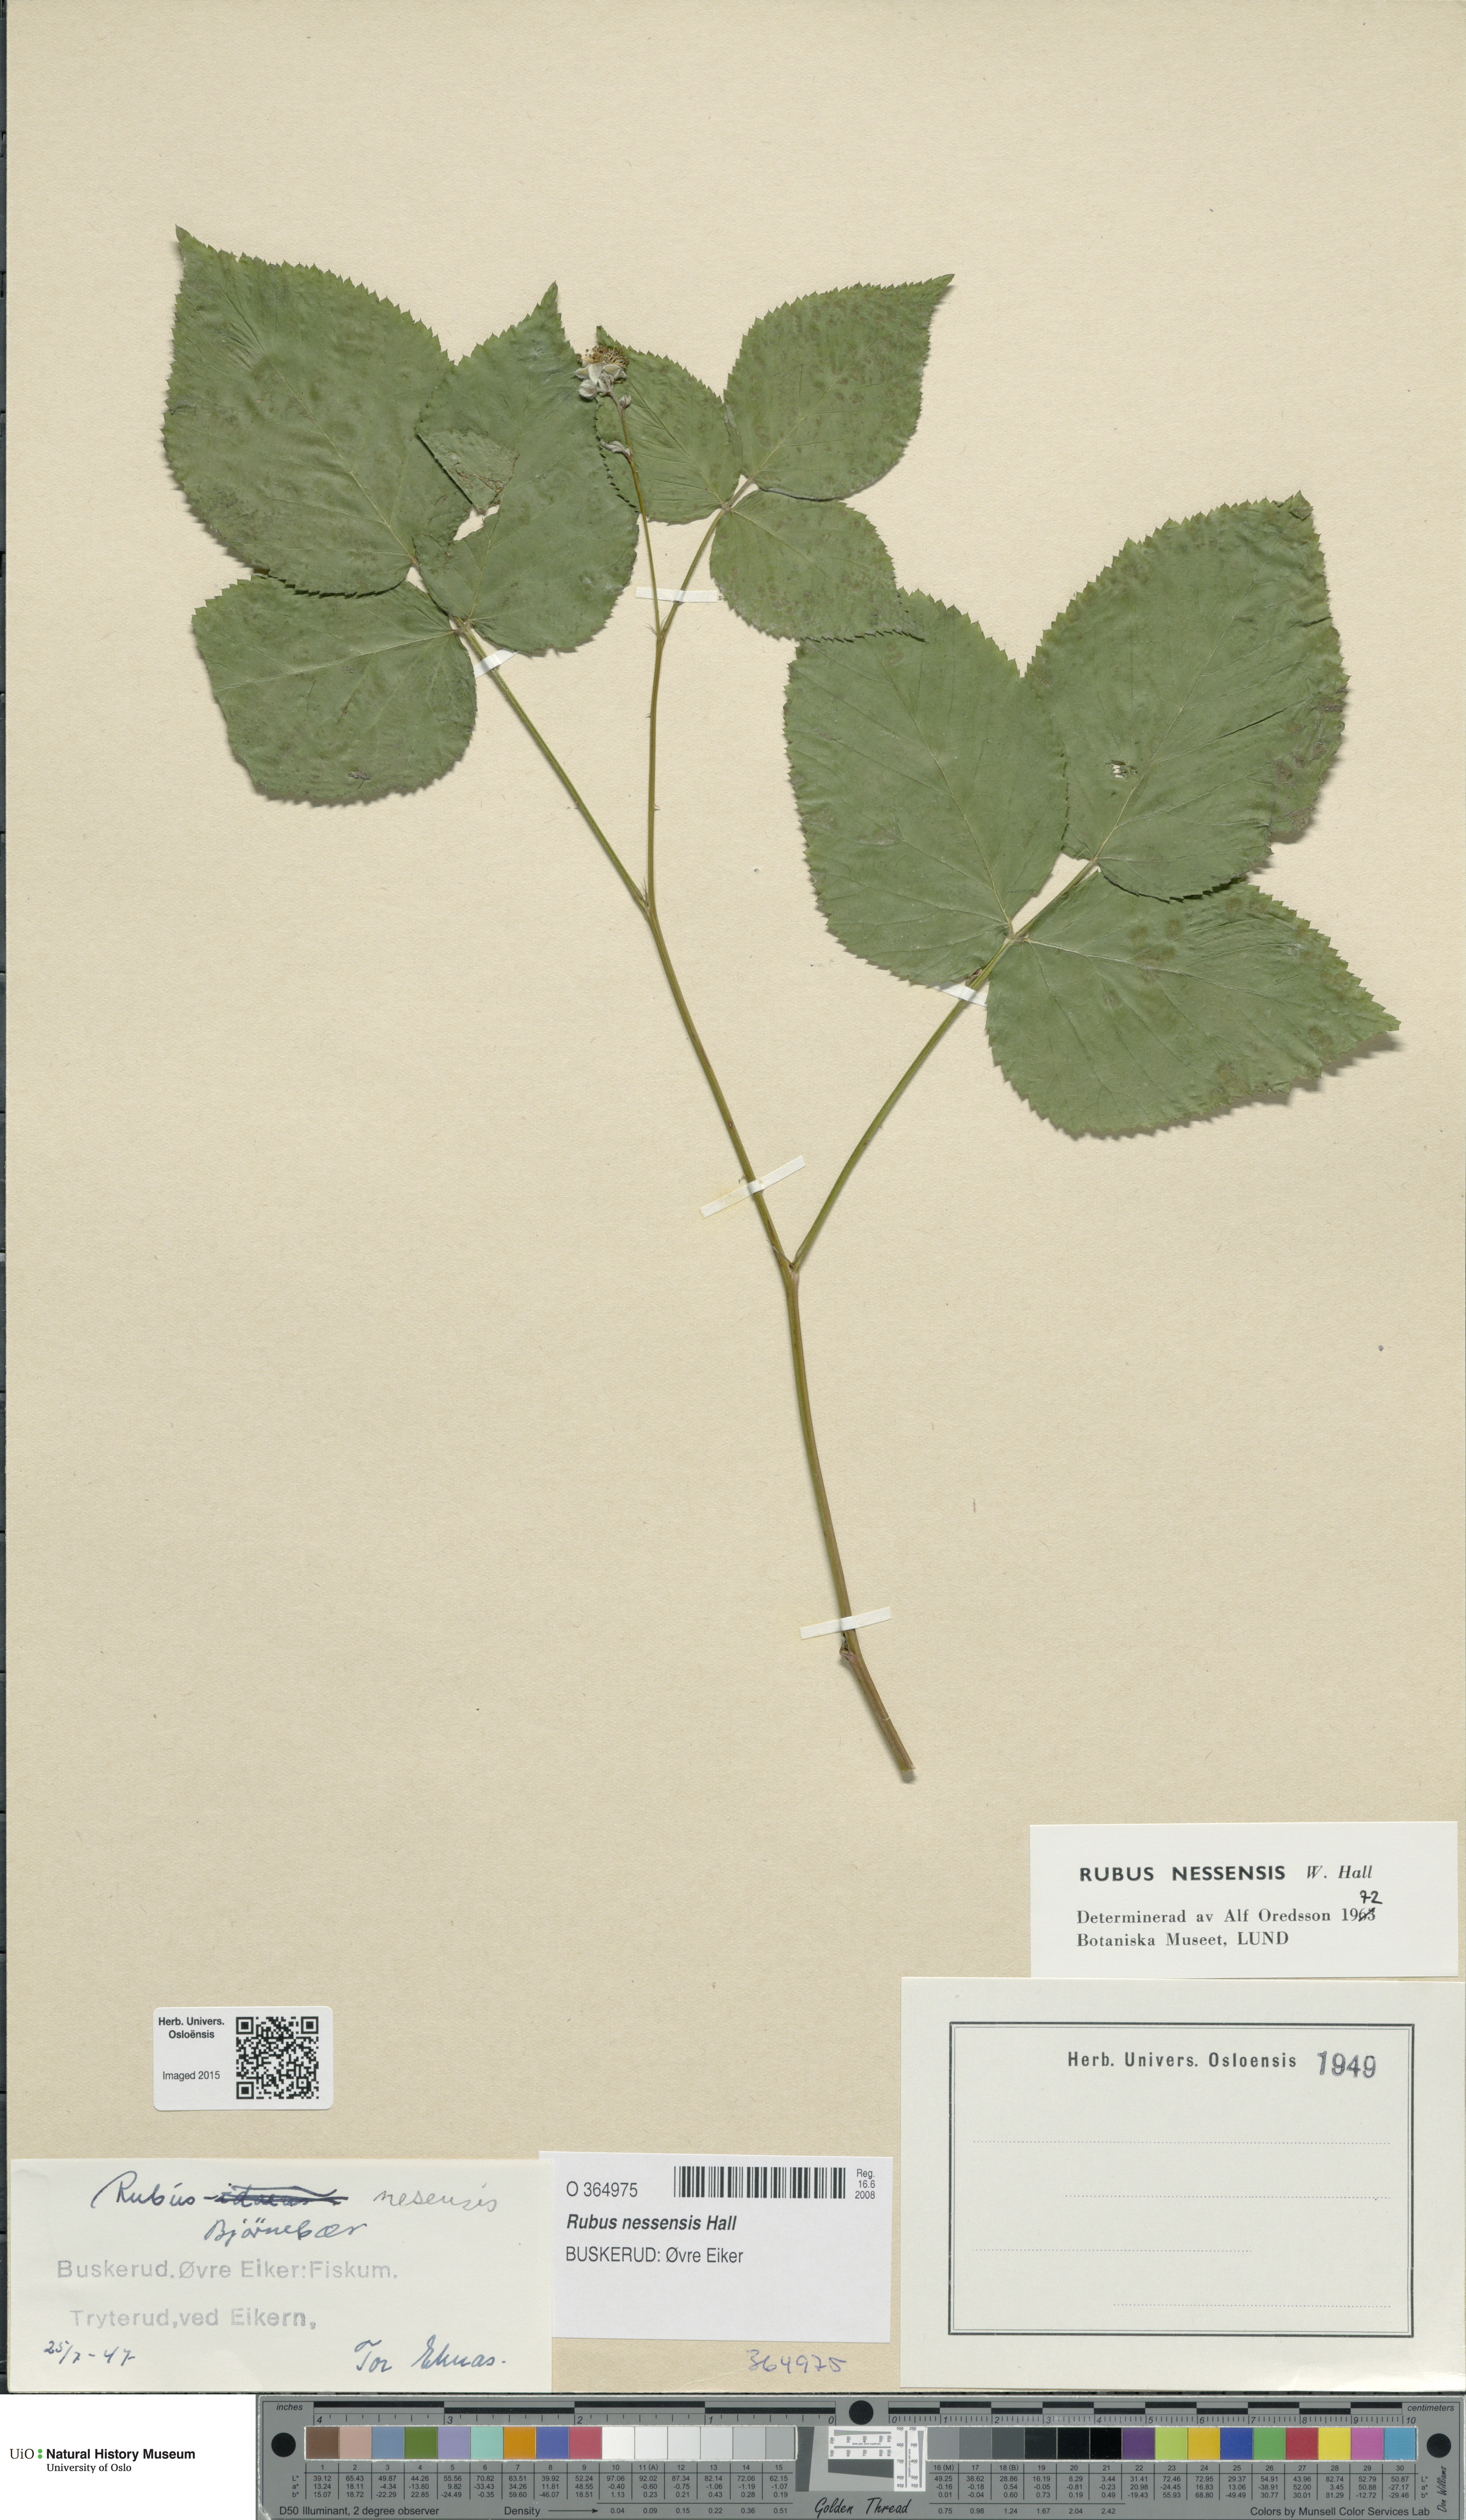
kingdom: Plantae
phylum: Tracheophyta
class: Magnoliopsida
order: Rosales
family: Rosaceae
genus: Rubus
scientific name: Rubus polonicus
